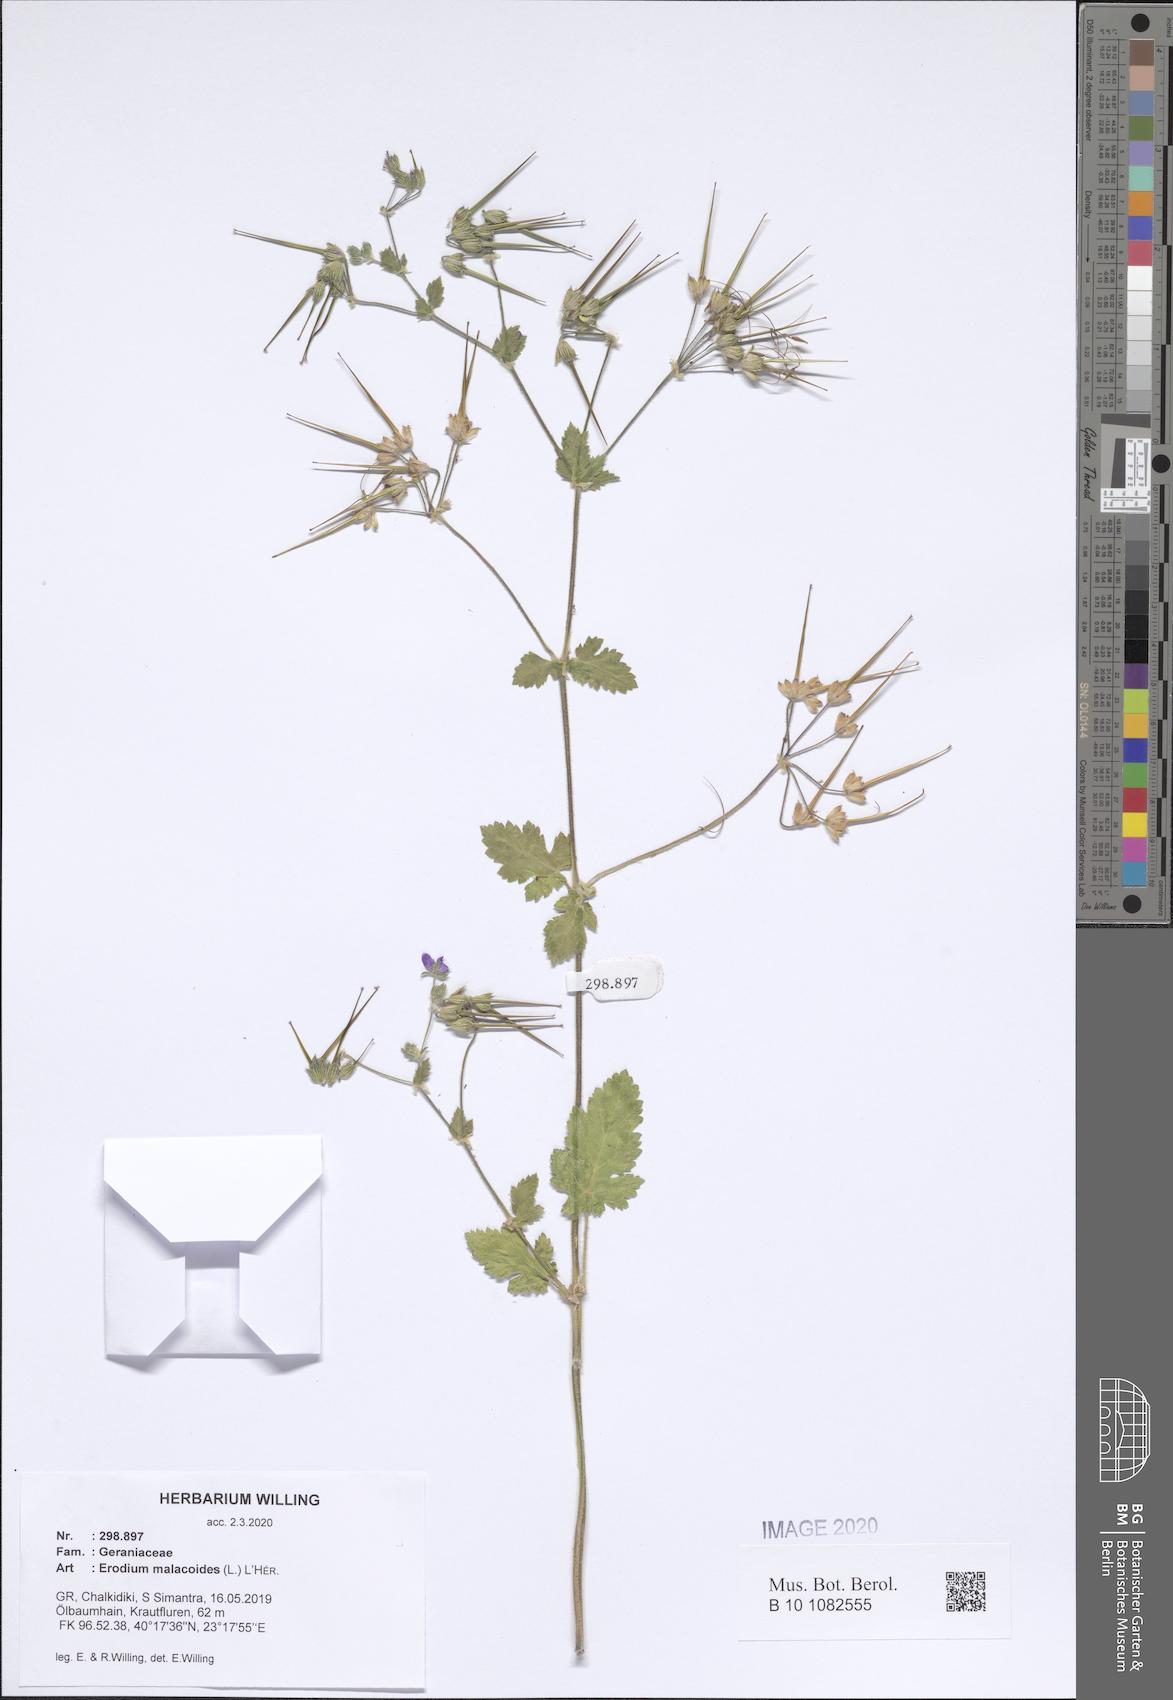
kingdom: Plantae
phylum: Tracheophyta
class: Magnoliopsida
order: Geraniales
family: Geraniaceae
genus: Erodium
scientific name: Erodium malacoides
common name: Soft stork's-bill
